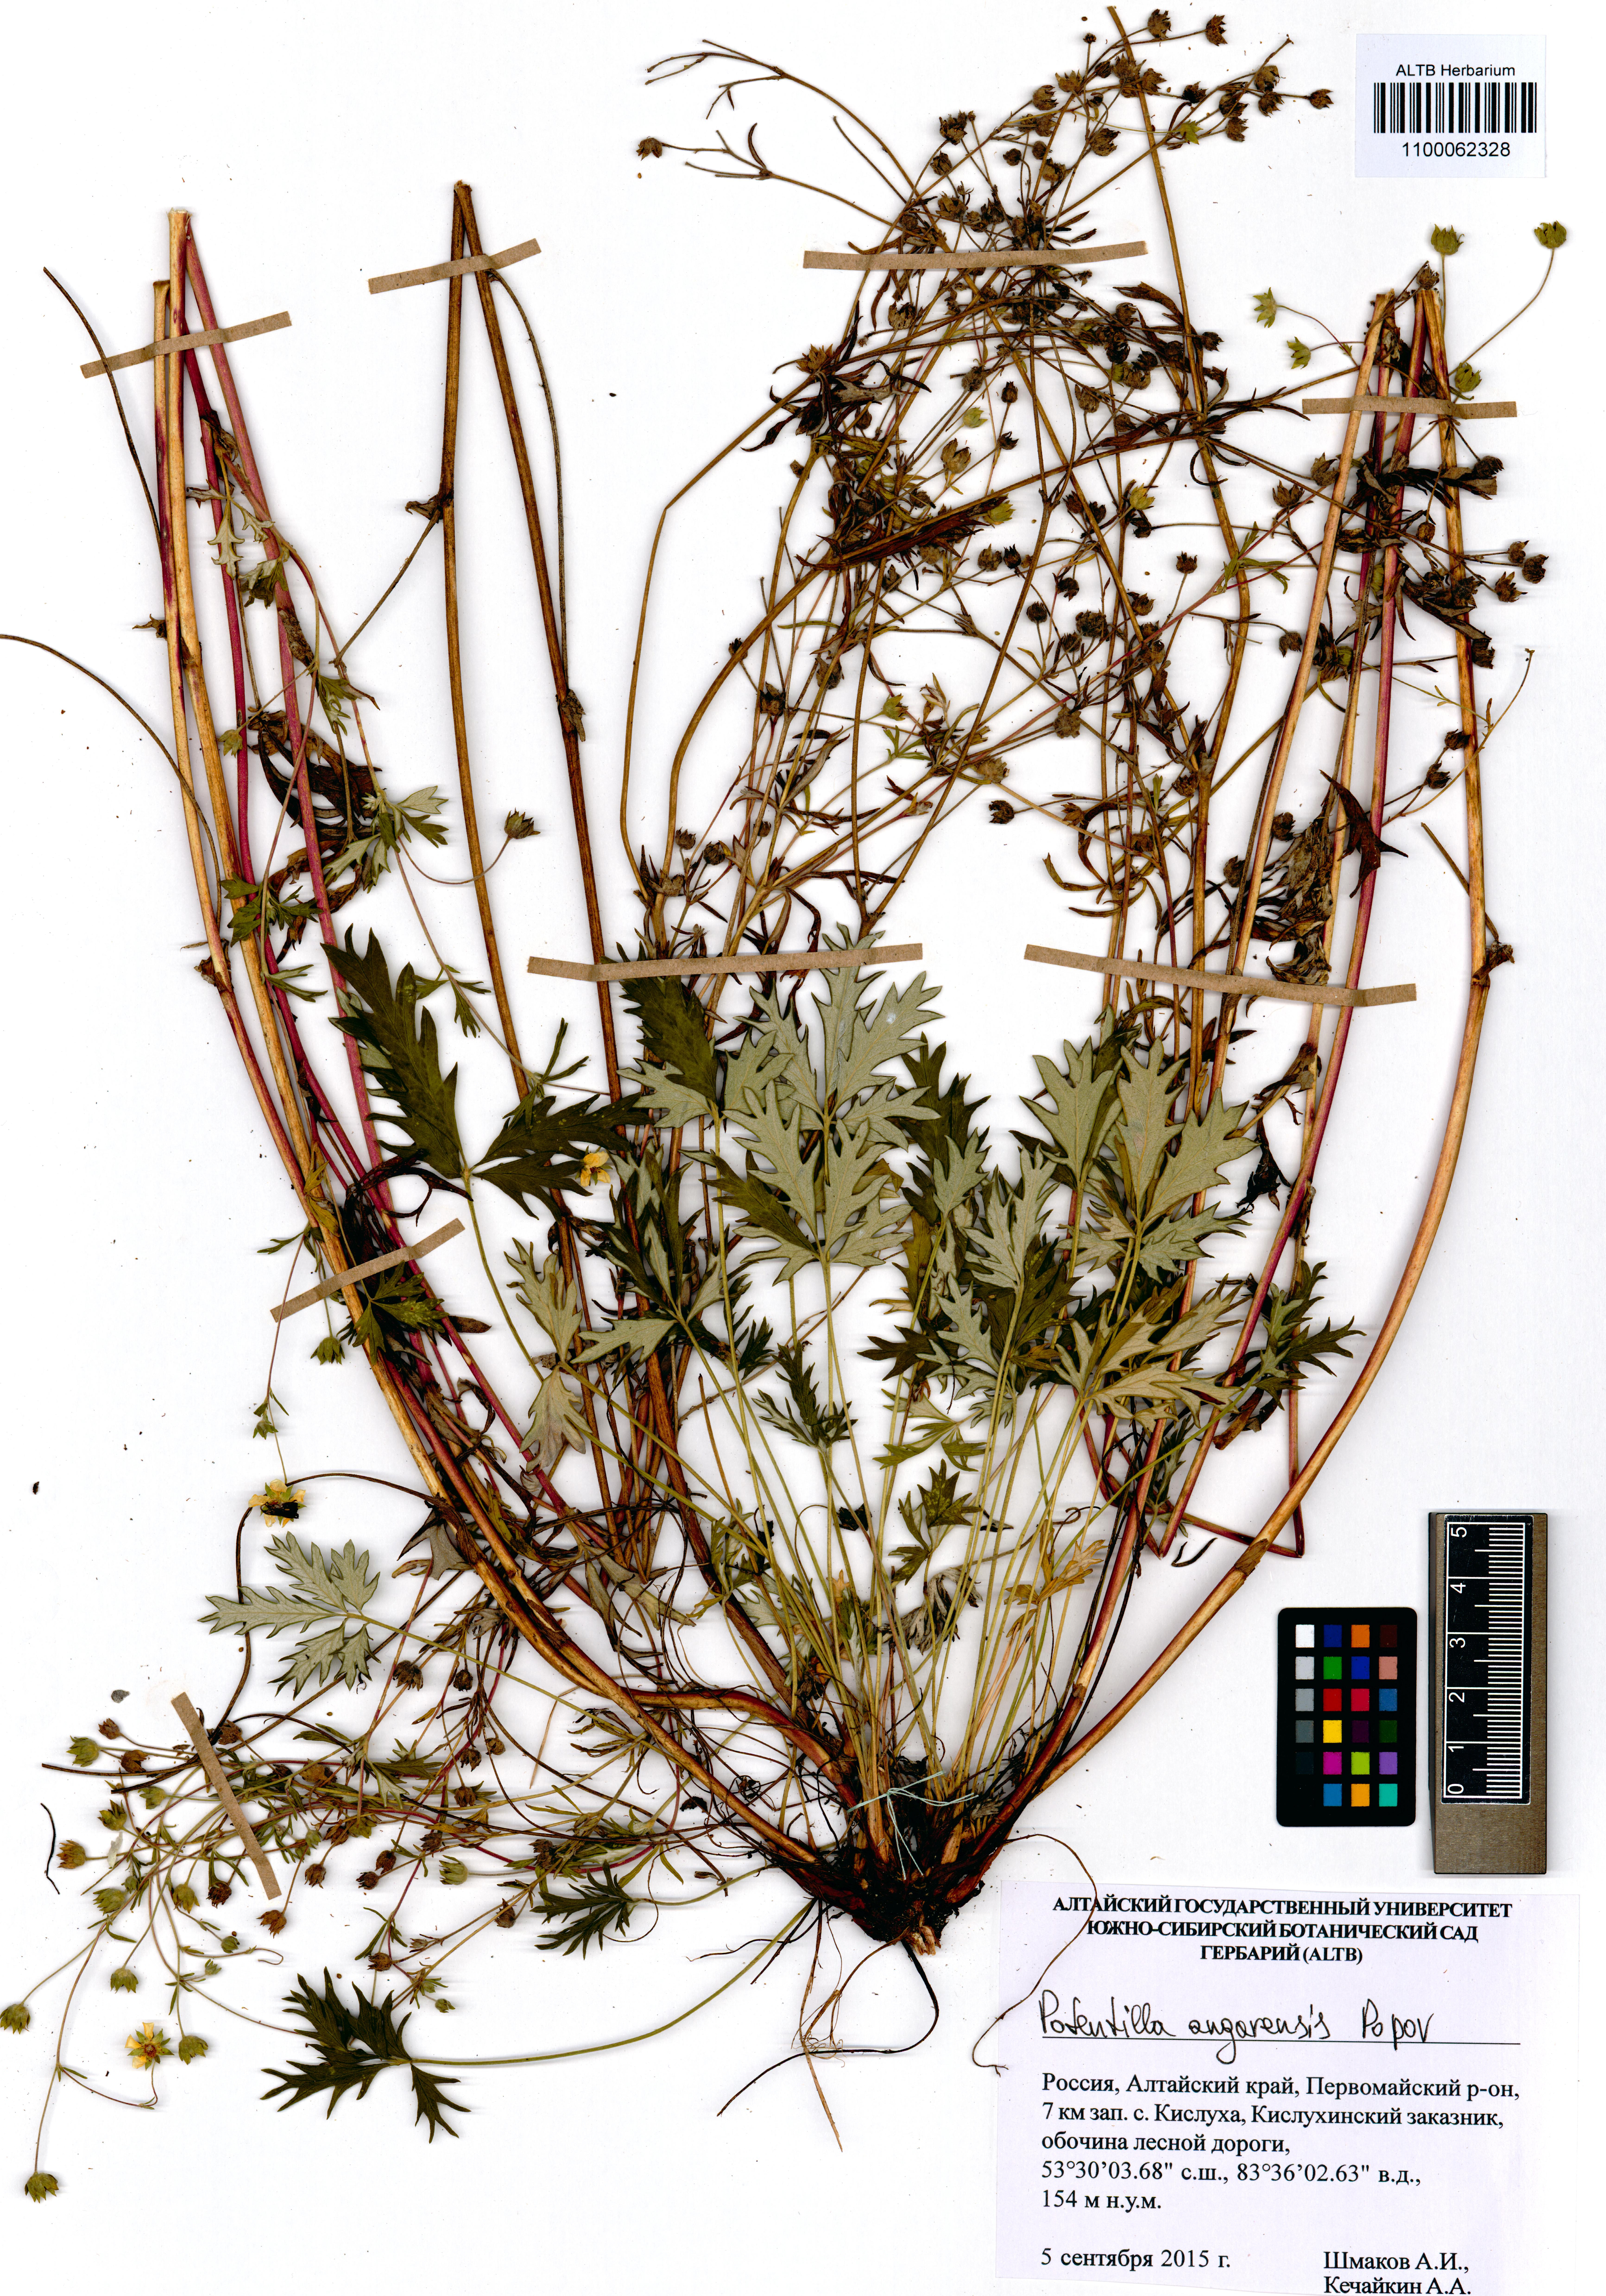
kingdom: Plantae
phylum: Tracheophyta
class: Magnoliopsida
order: Rosales
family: Rosaceae
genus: Potentilla
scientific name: Potentilla angarensis
